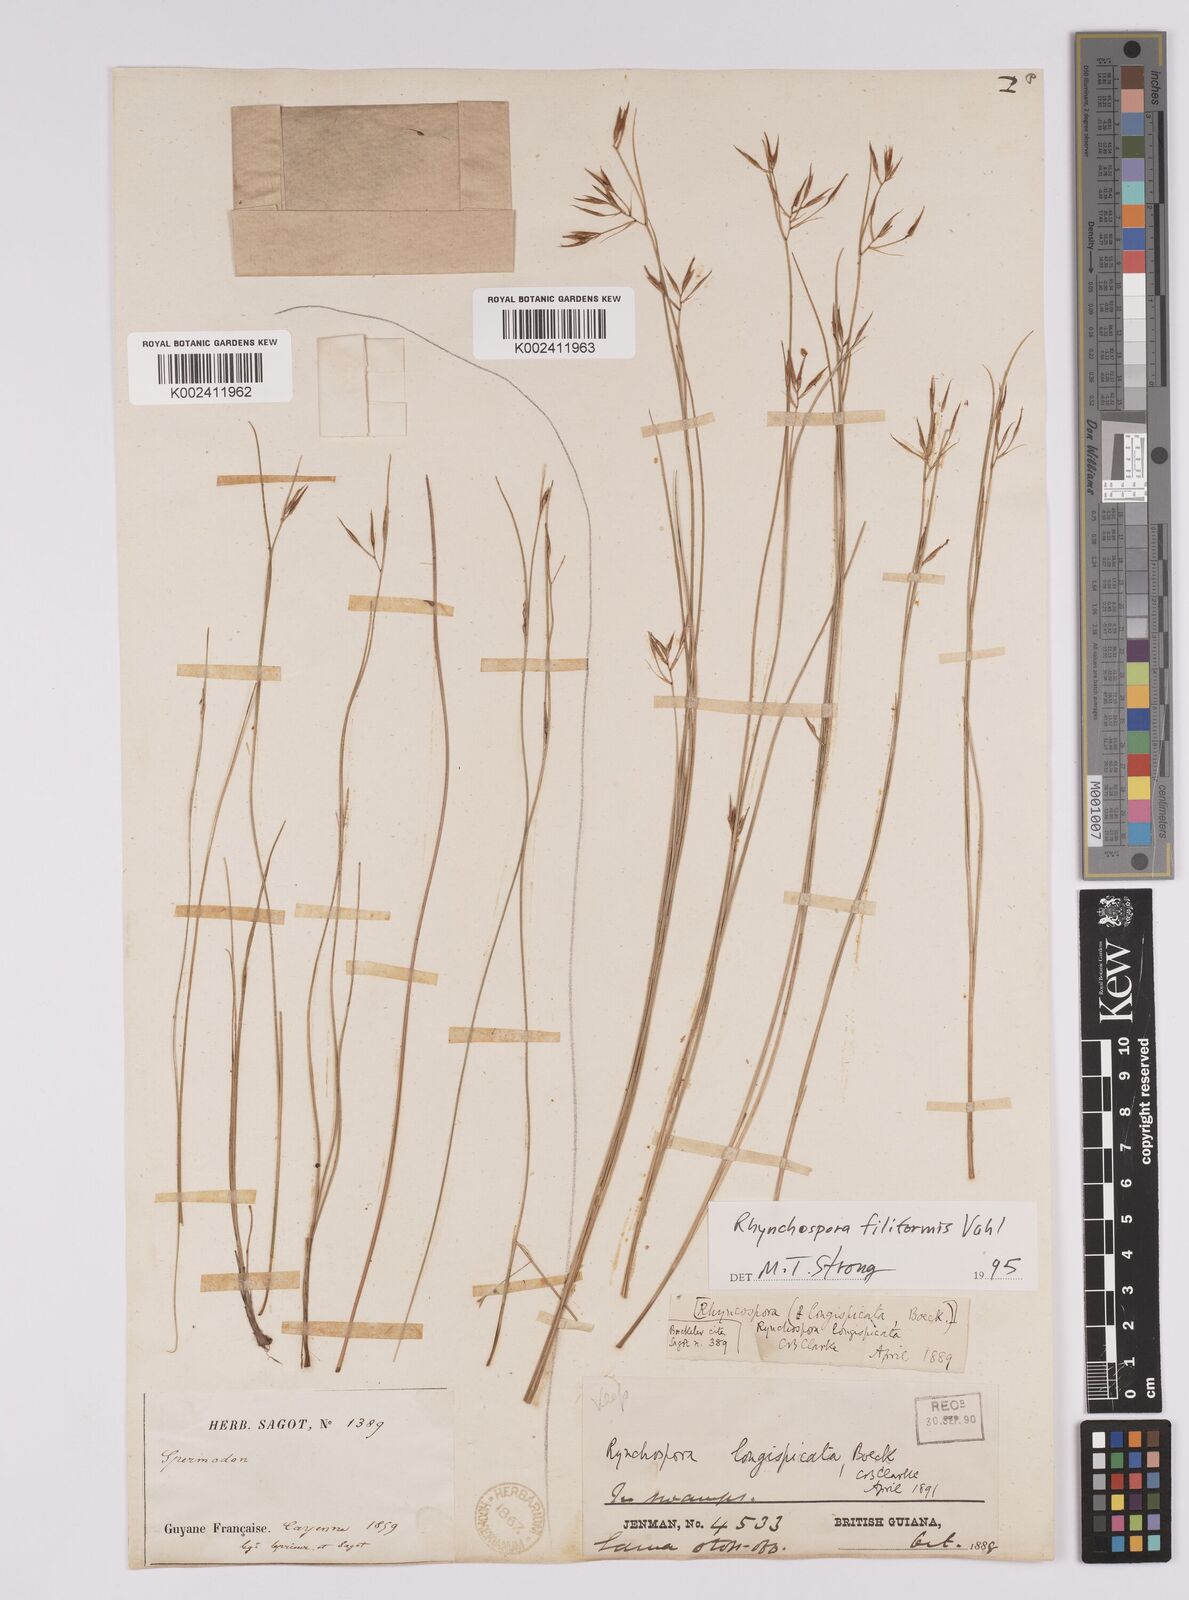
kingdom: Plantae
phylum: Tracheophyta
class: Liliopsida
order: Poales
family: Cyperaceae
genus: Rhynchospora
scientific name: Rhynchospora filiformis
